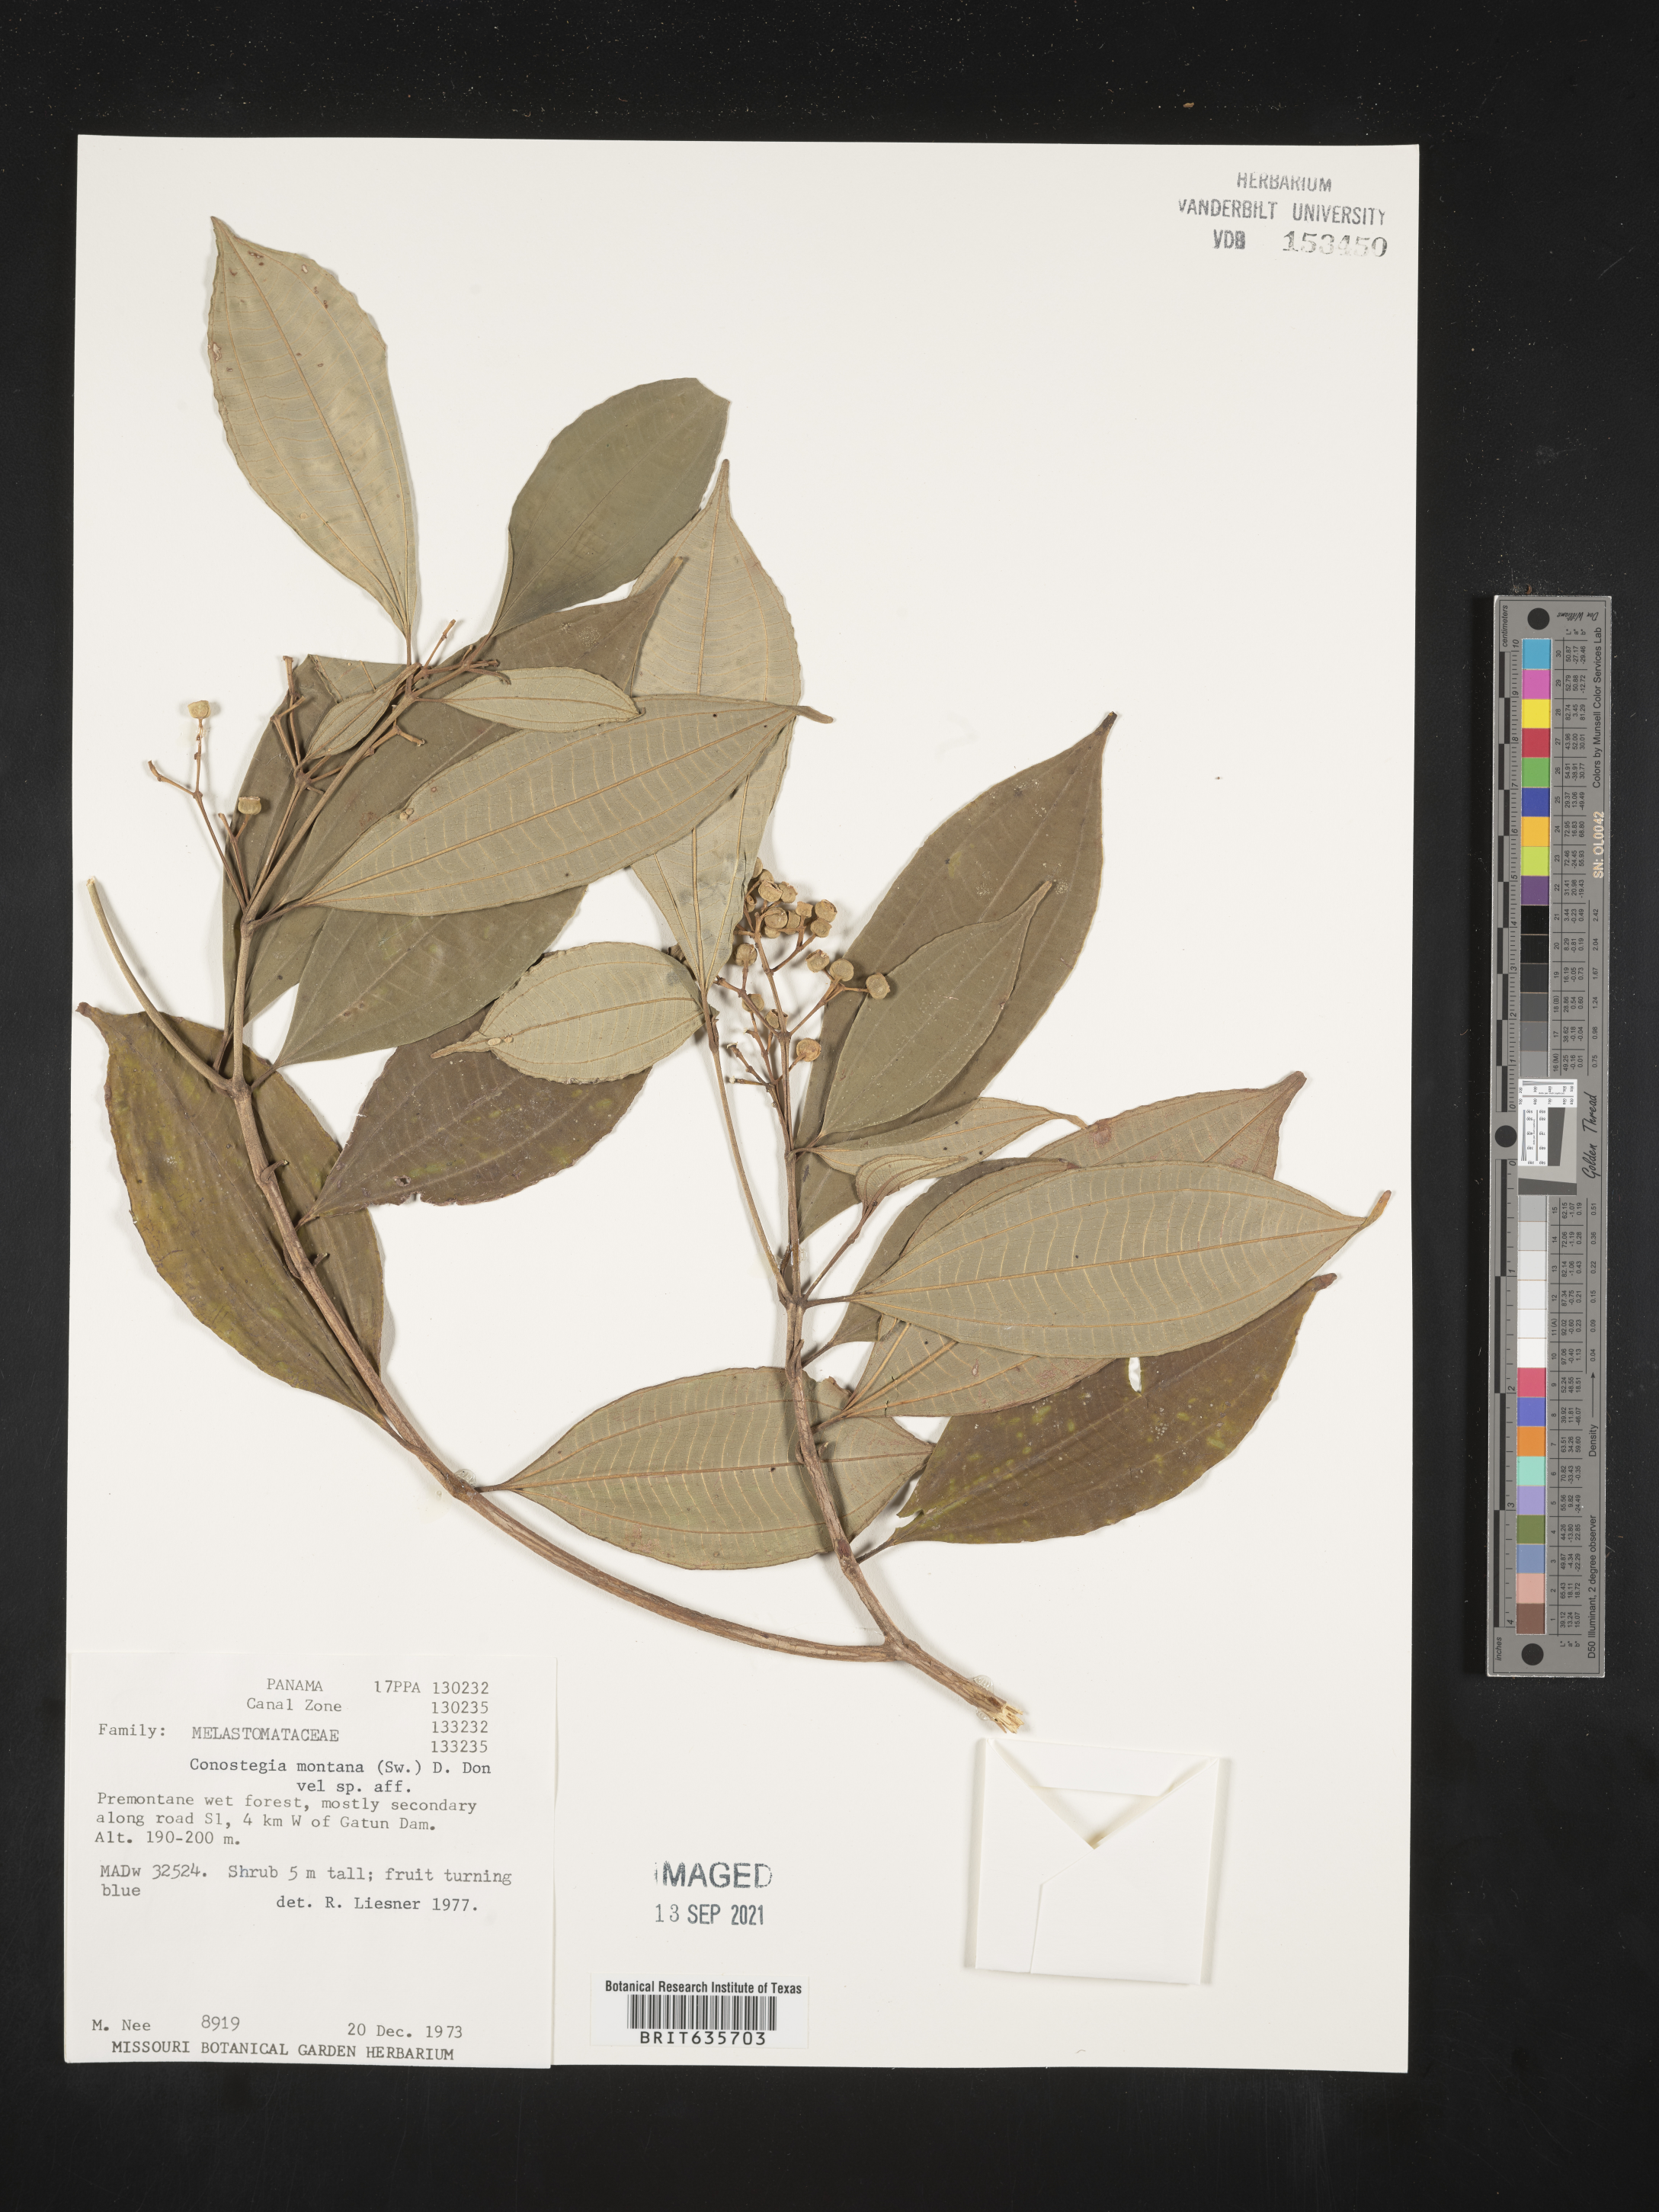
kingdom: Plantae
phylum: Tracheophyta
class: Magnoliopsida
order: Myrtales
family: Melastomataceae
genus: Miconia
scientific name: Miconia
